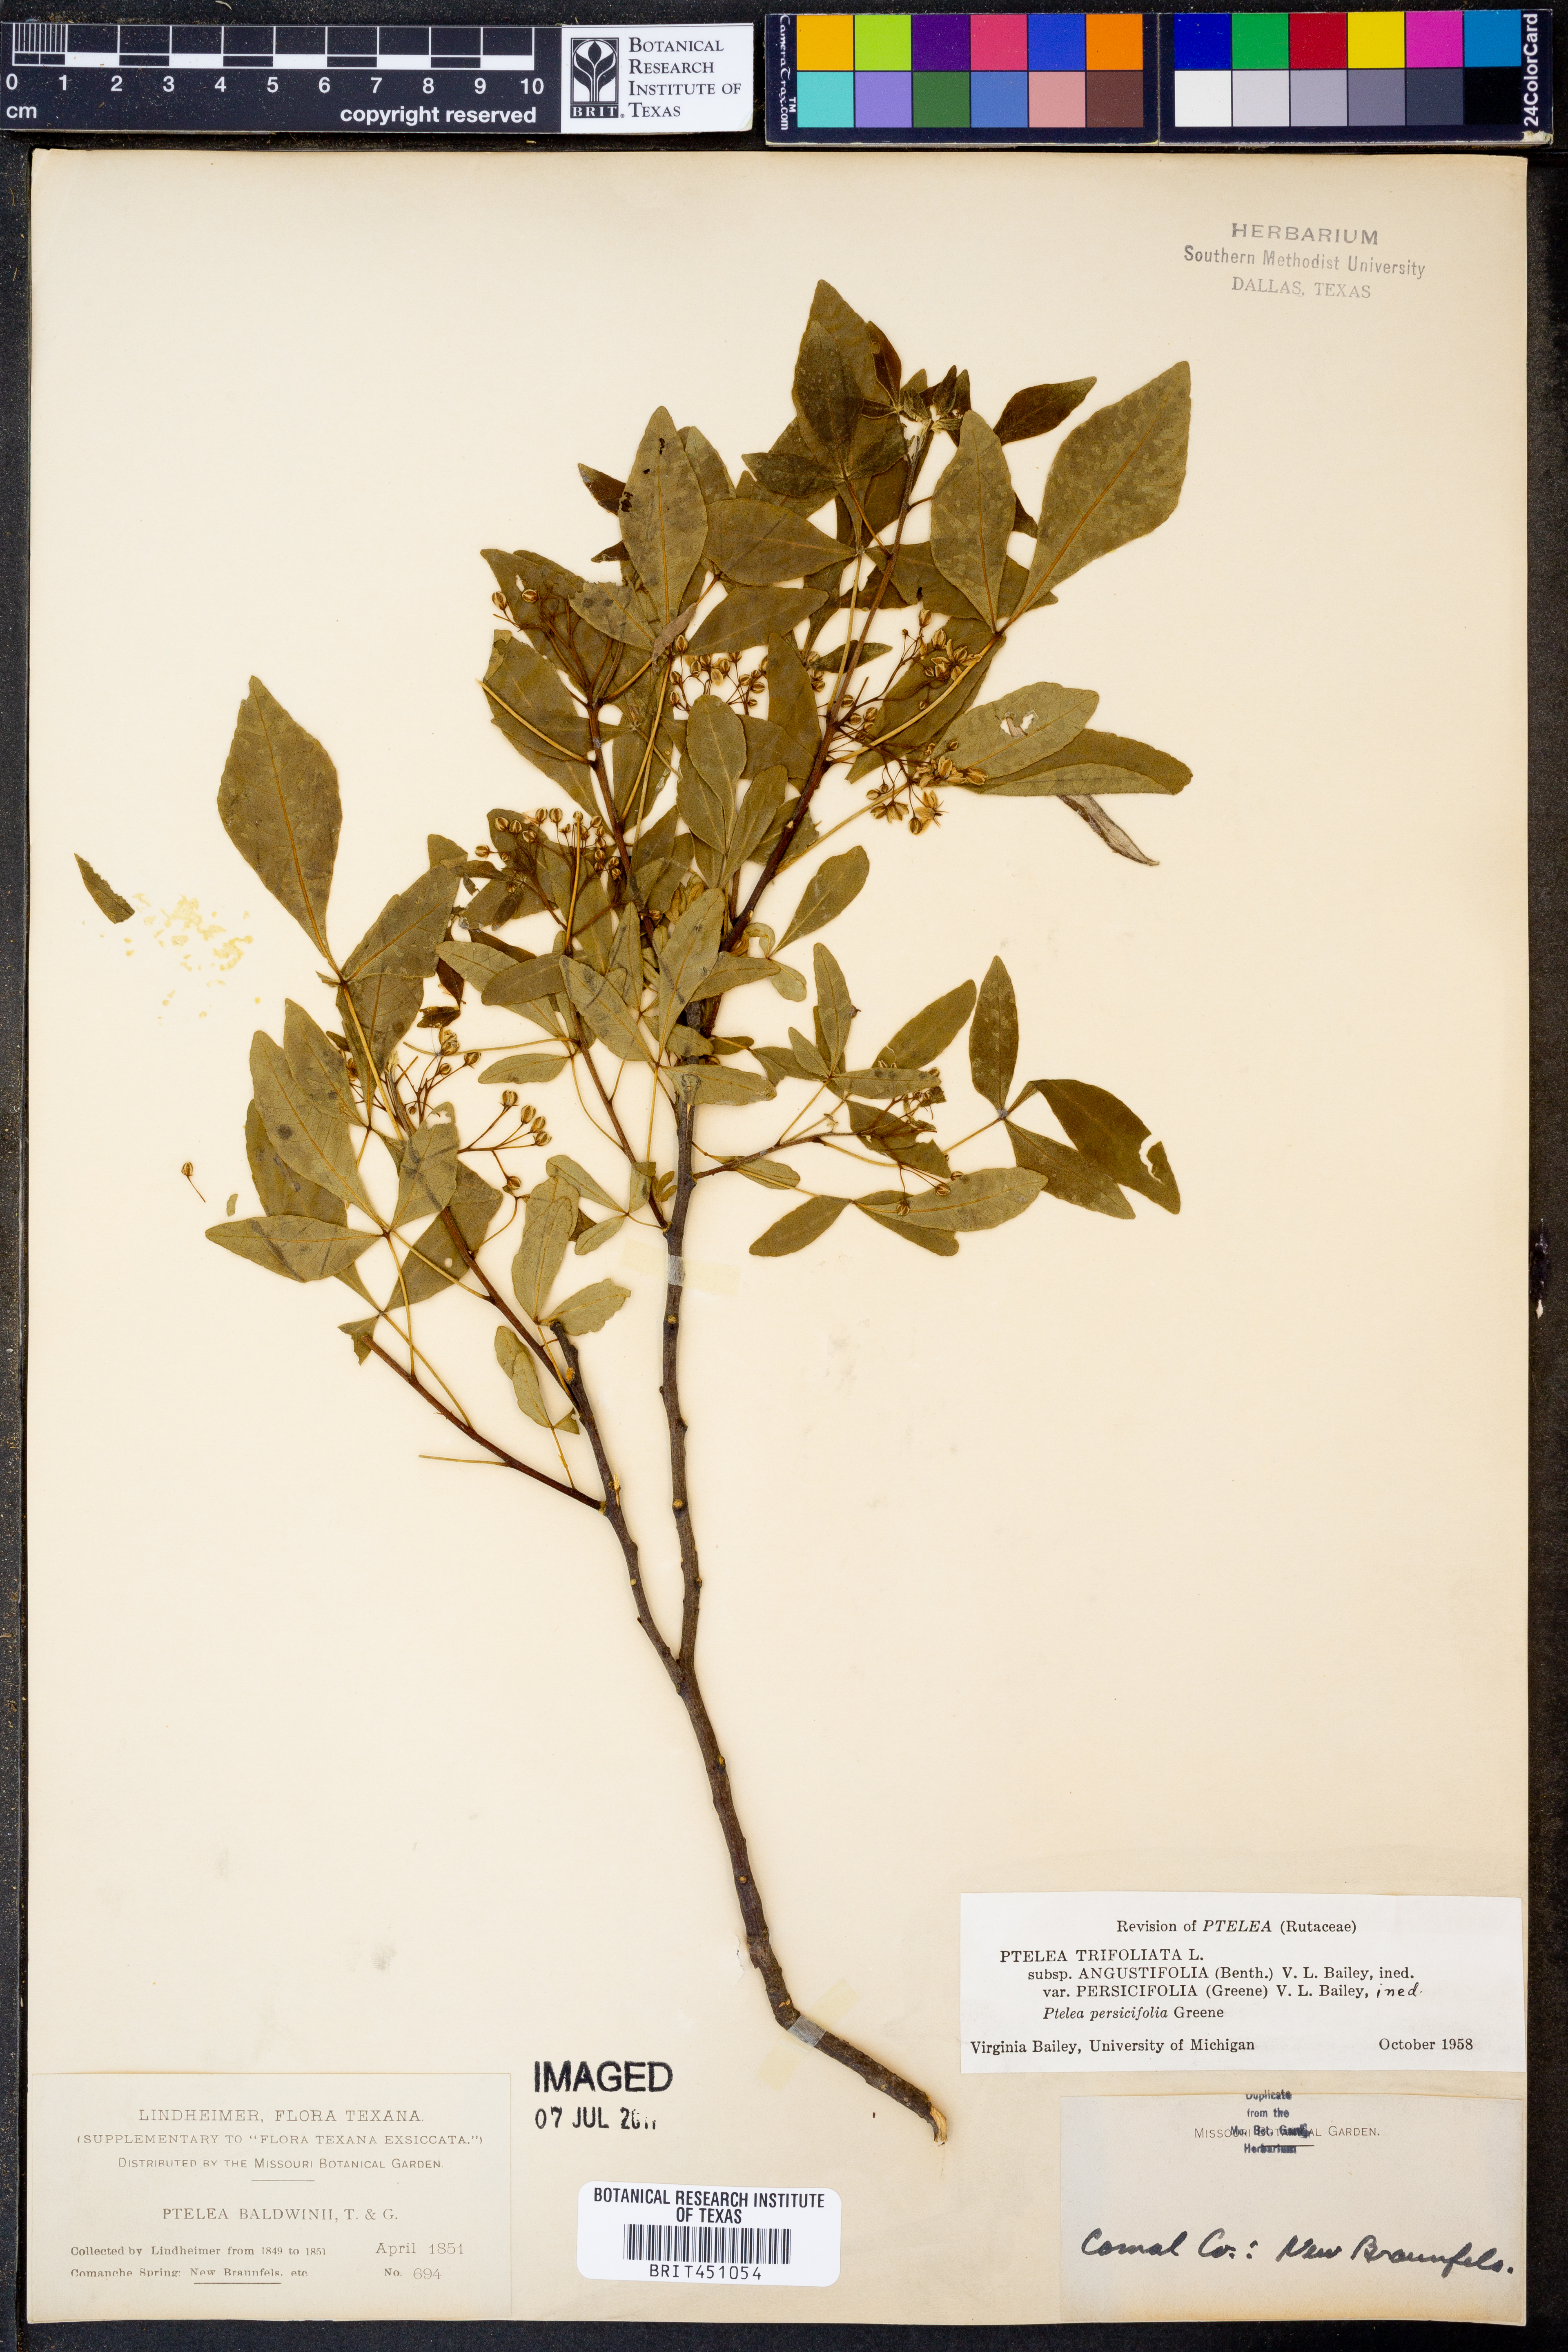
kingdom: Plantae
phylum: Tracheophyta
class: Magnoliopsida
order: Sapindales
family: Rutaceae
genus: Ptelea
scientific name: Ptelea trifoliata
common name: Common hop-tree
